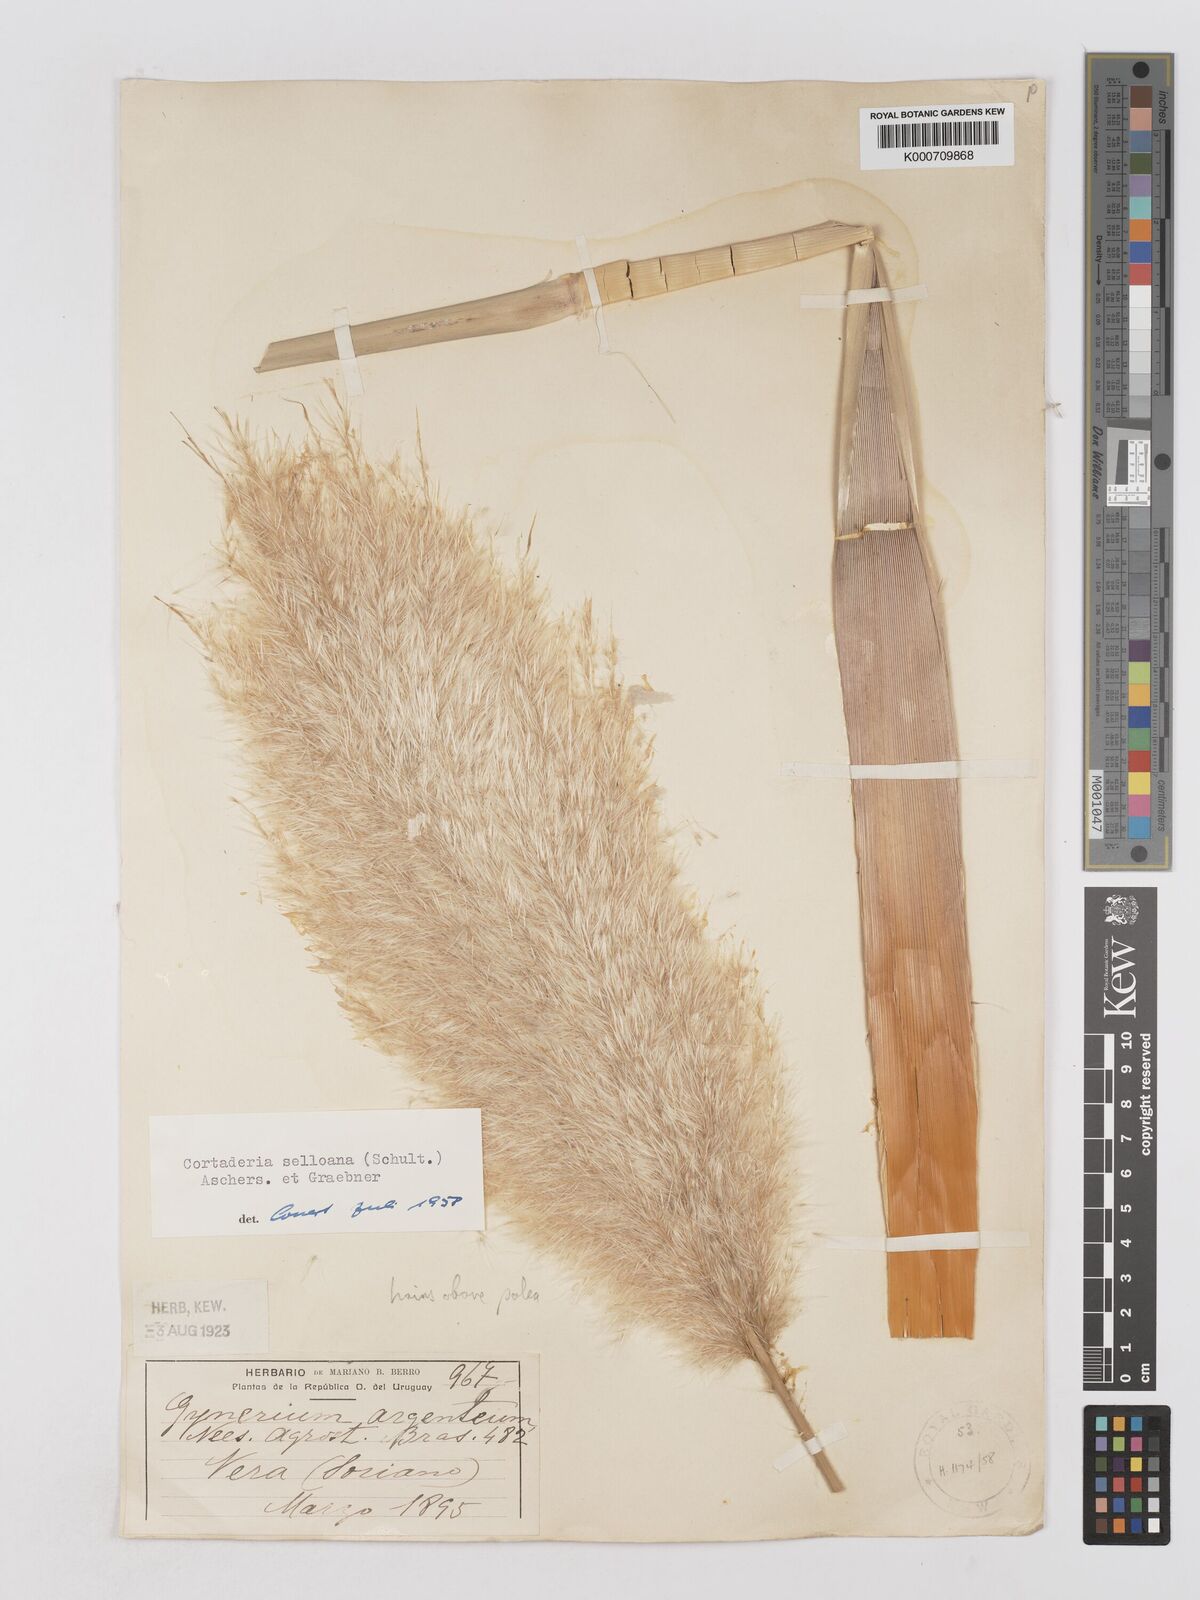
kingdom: Plantae
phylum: Tracheophyta
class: Liliopsida
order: Poales
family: Poaceae
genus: Cortaderia
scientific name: Cortaderia selloana
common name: Uruguayan pampas grass
